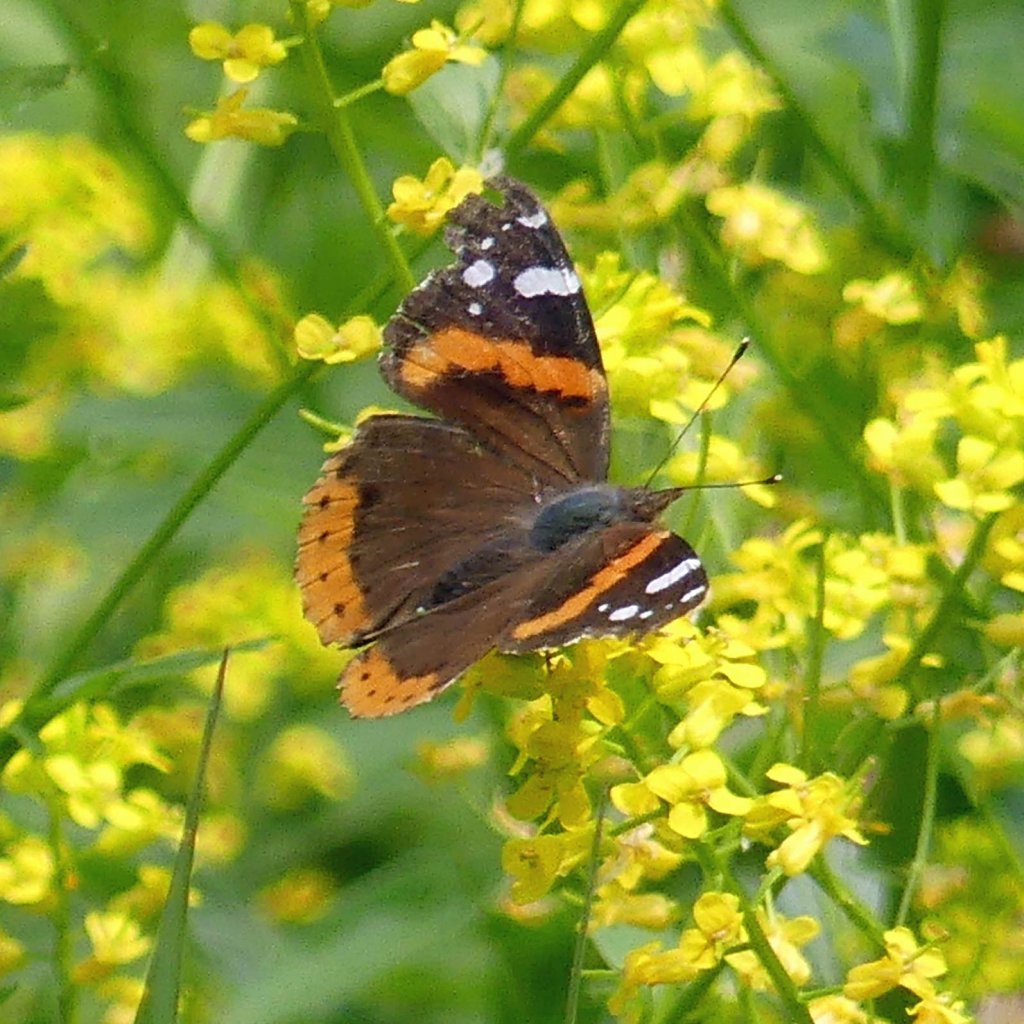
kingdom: Animalia
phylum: Arthropoda
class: Insecta
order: Lepidoptera
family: Nymphalidae
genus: Vanessa
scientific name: Vanessa atalanta
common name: Red Admiral
